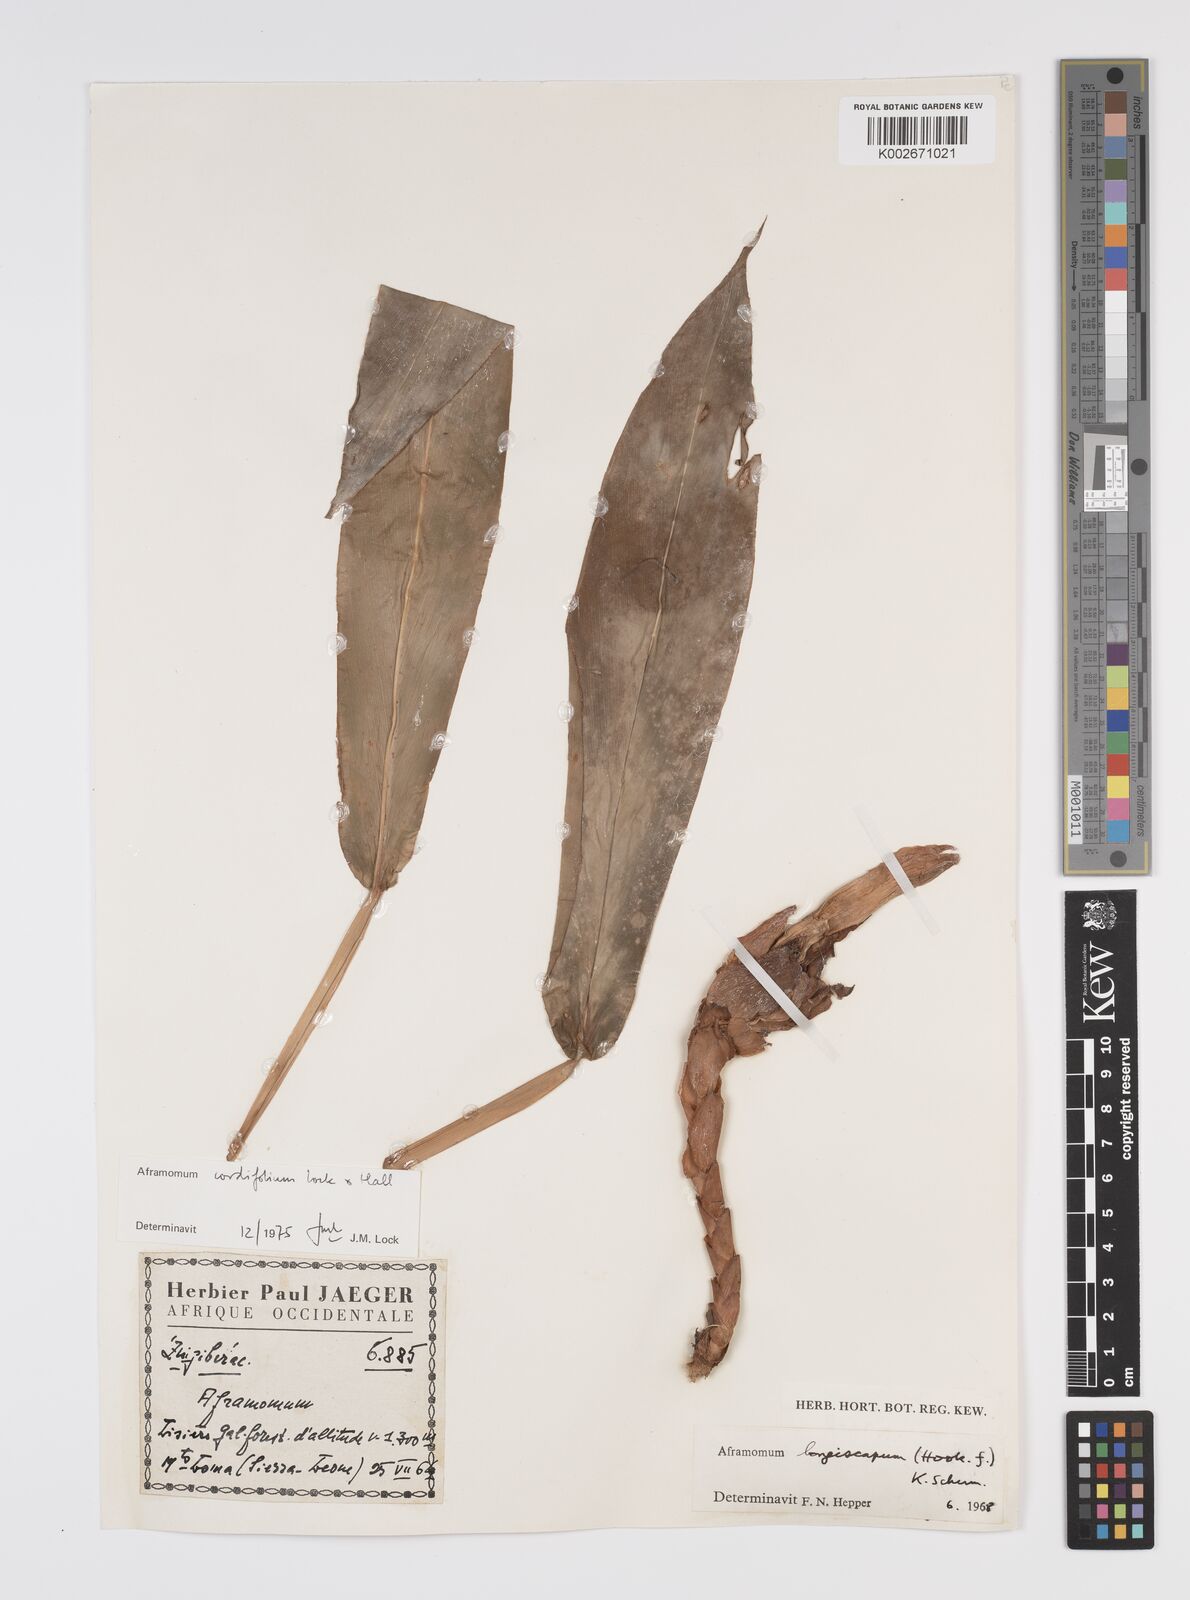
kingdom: Plantae
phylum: Tracheophyta
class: Liliopsida
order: Zingiberales
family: Zingiberaceae
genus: Aframomum
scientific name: Aframomum cordifolium
